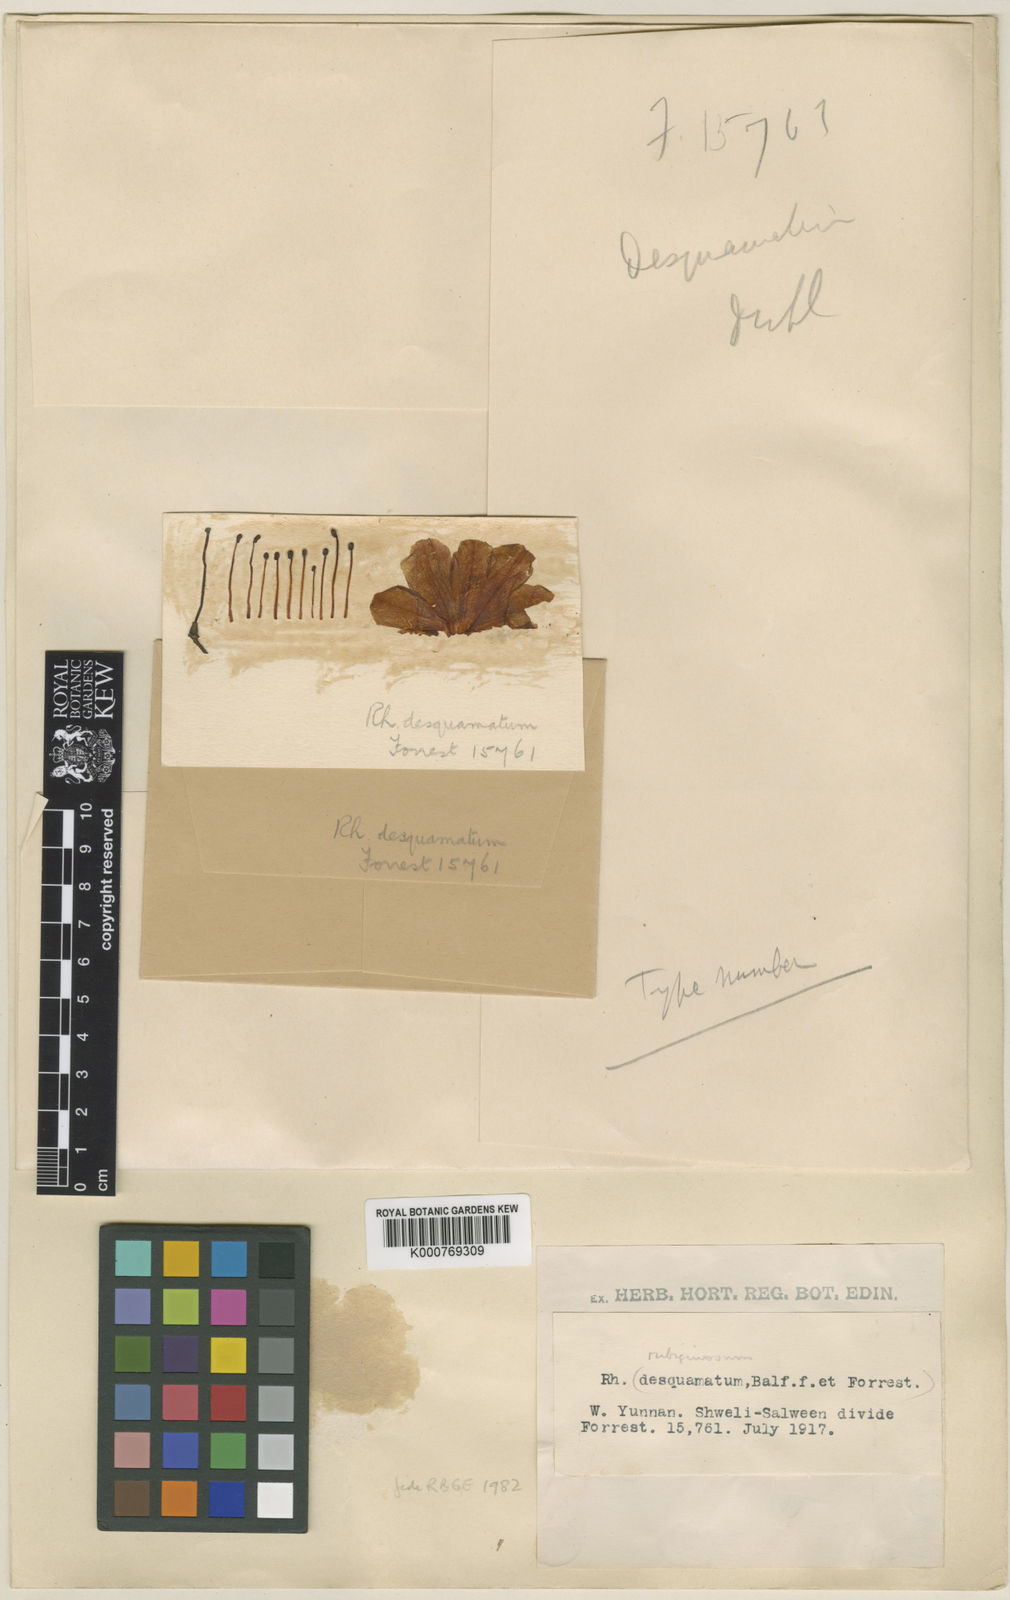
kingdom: Plantae
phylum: Tracheophyta
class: Magnoliopsida
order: Ericales
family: Ericaceae
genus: Rhododendron
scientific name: Rhododendron rubiginosum
